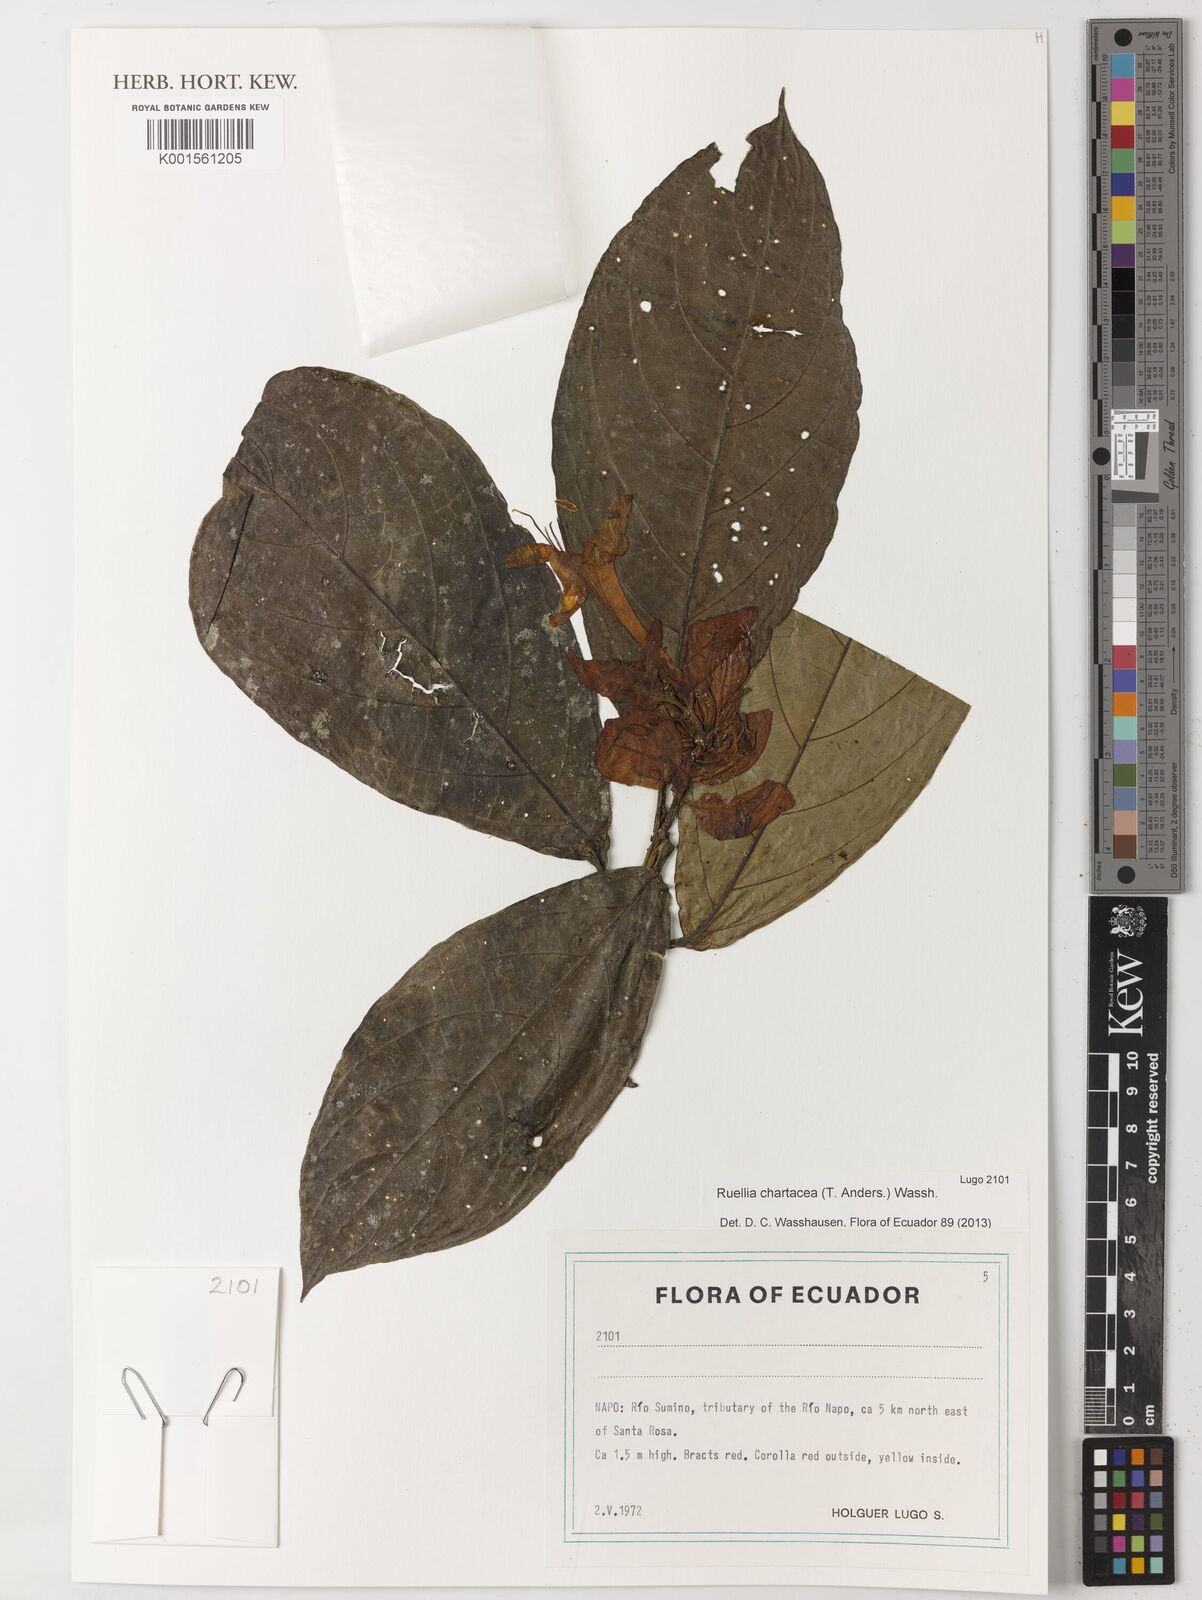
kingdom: Plantae
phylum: Tracheophyta
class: Magnoliopsida
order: Lamiales
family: Acanthaceae
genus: Ruellia
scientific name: Ruellia chartacea
